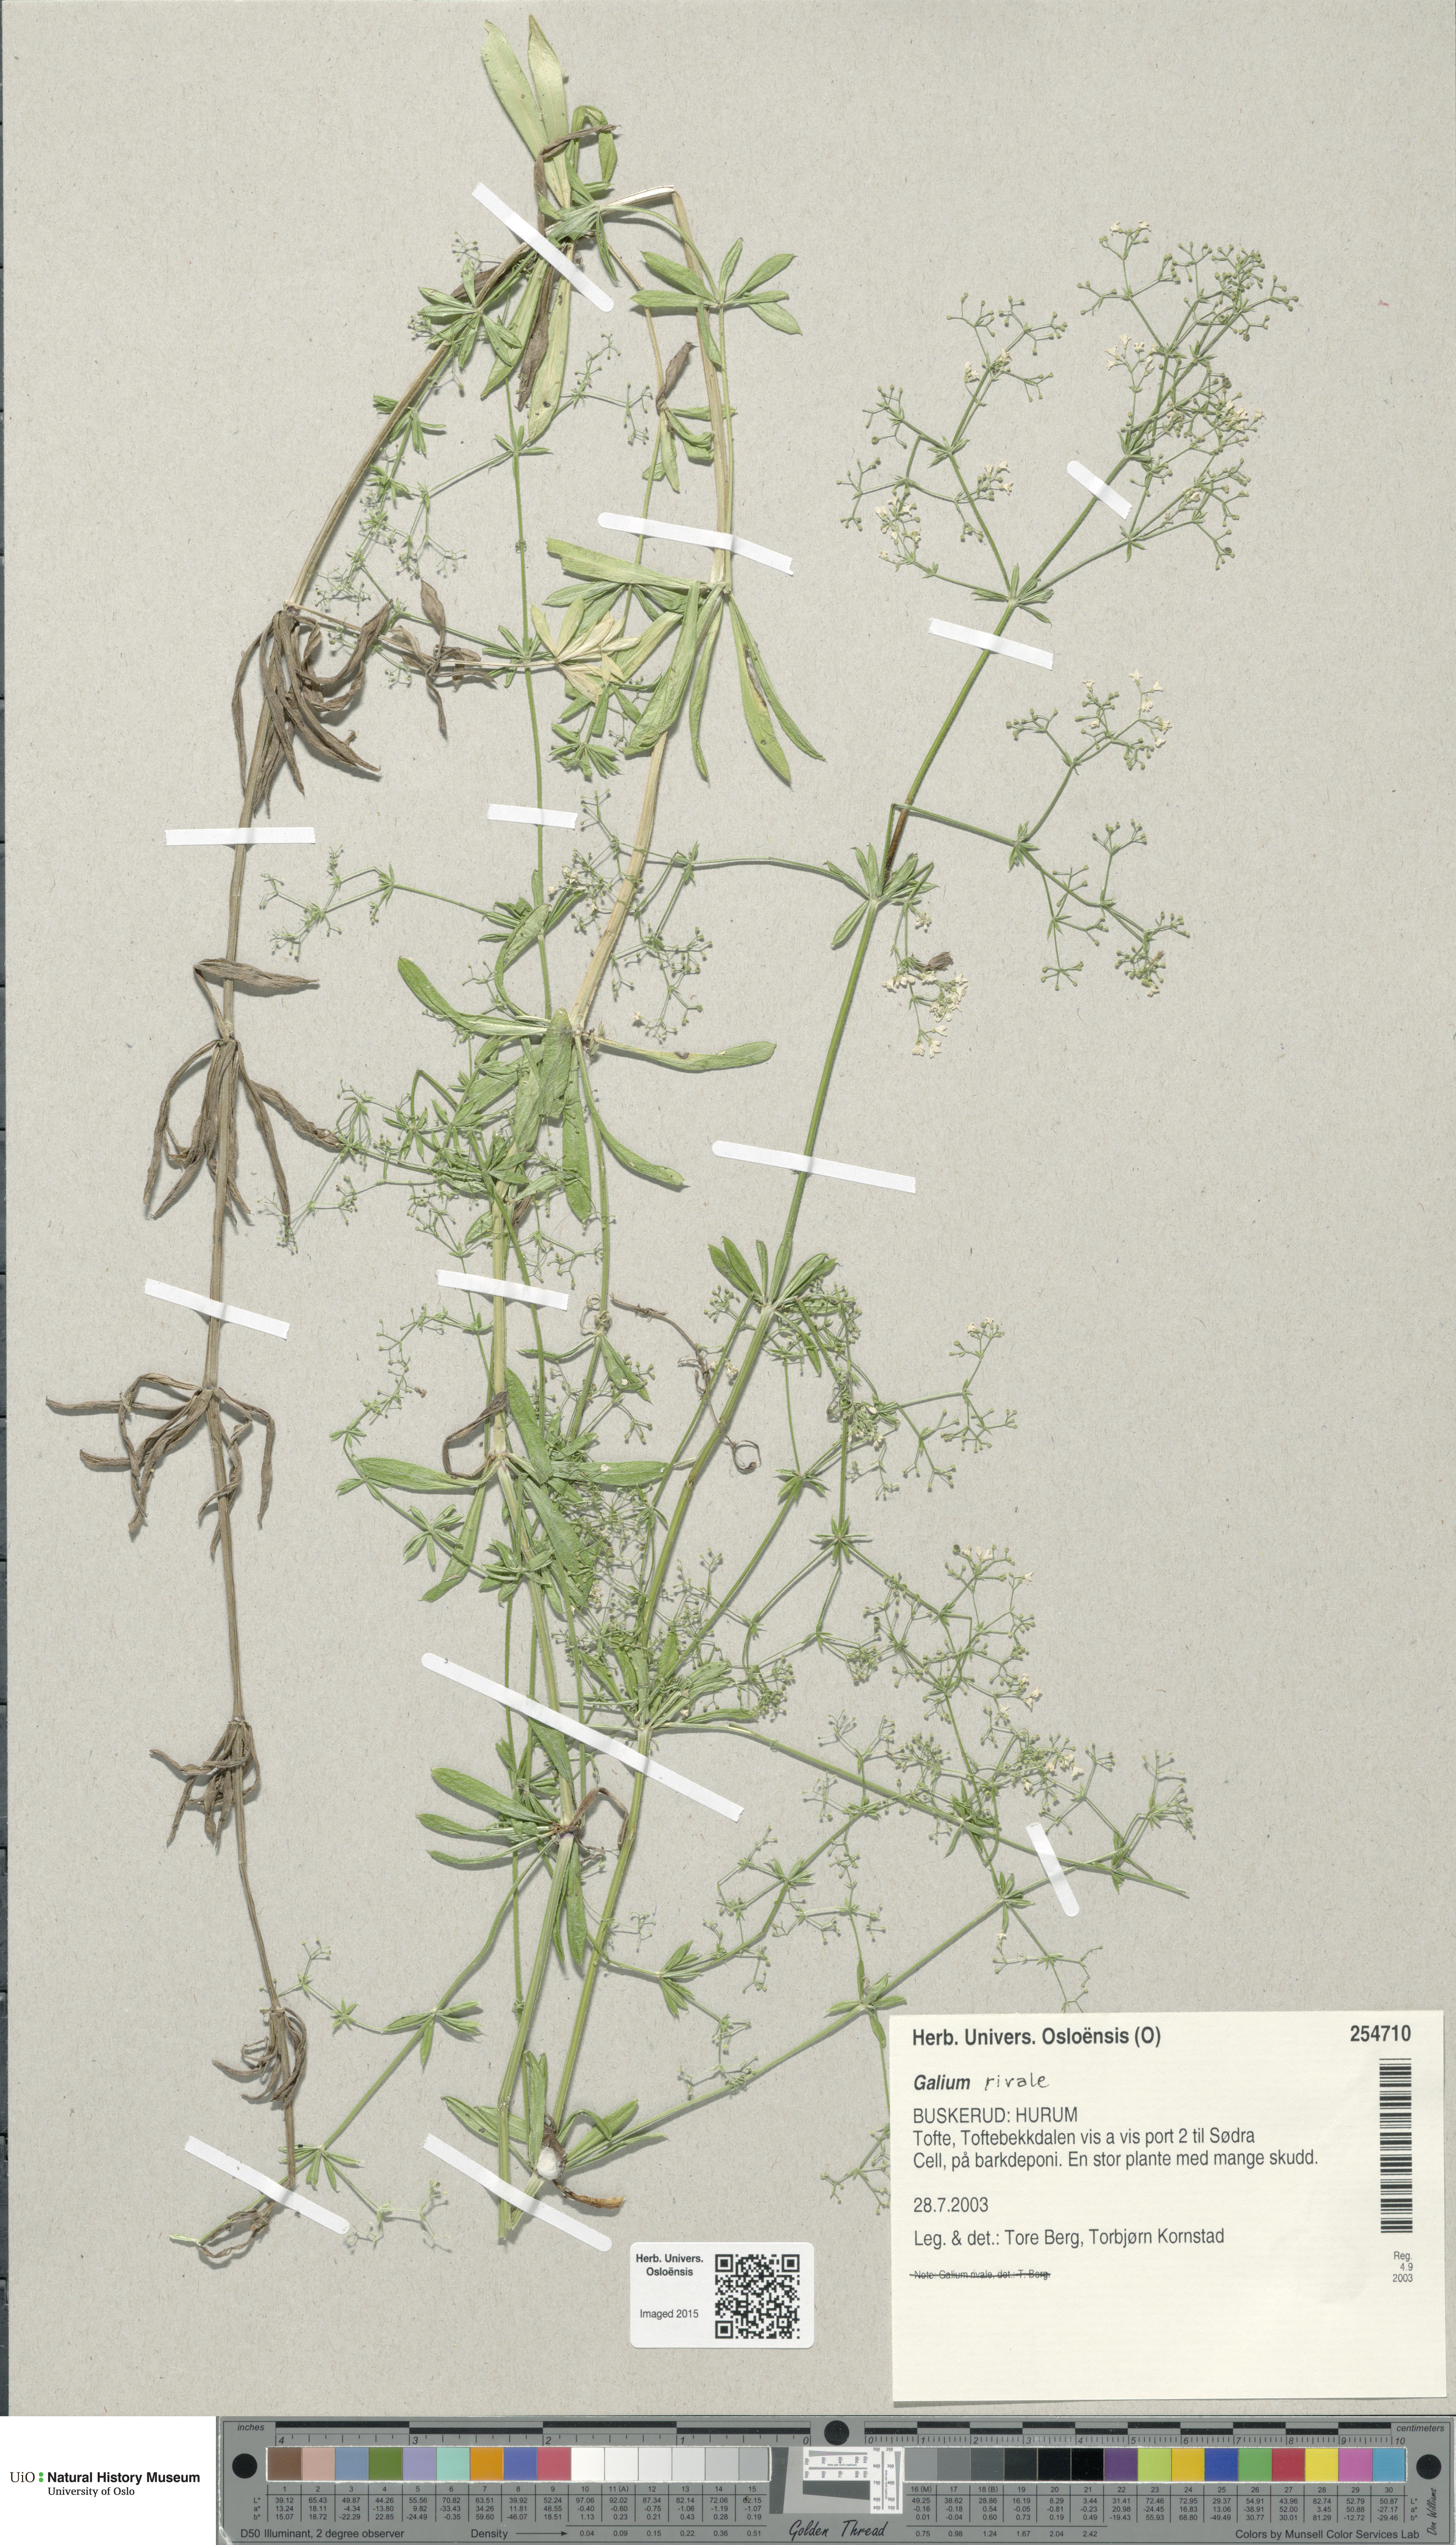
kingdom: Plantae
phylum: Tracheophyta
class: Magnoliopsida
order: Gentianales
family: Rubiaceae
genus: Galium
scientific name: Galium rivale
